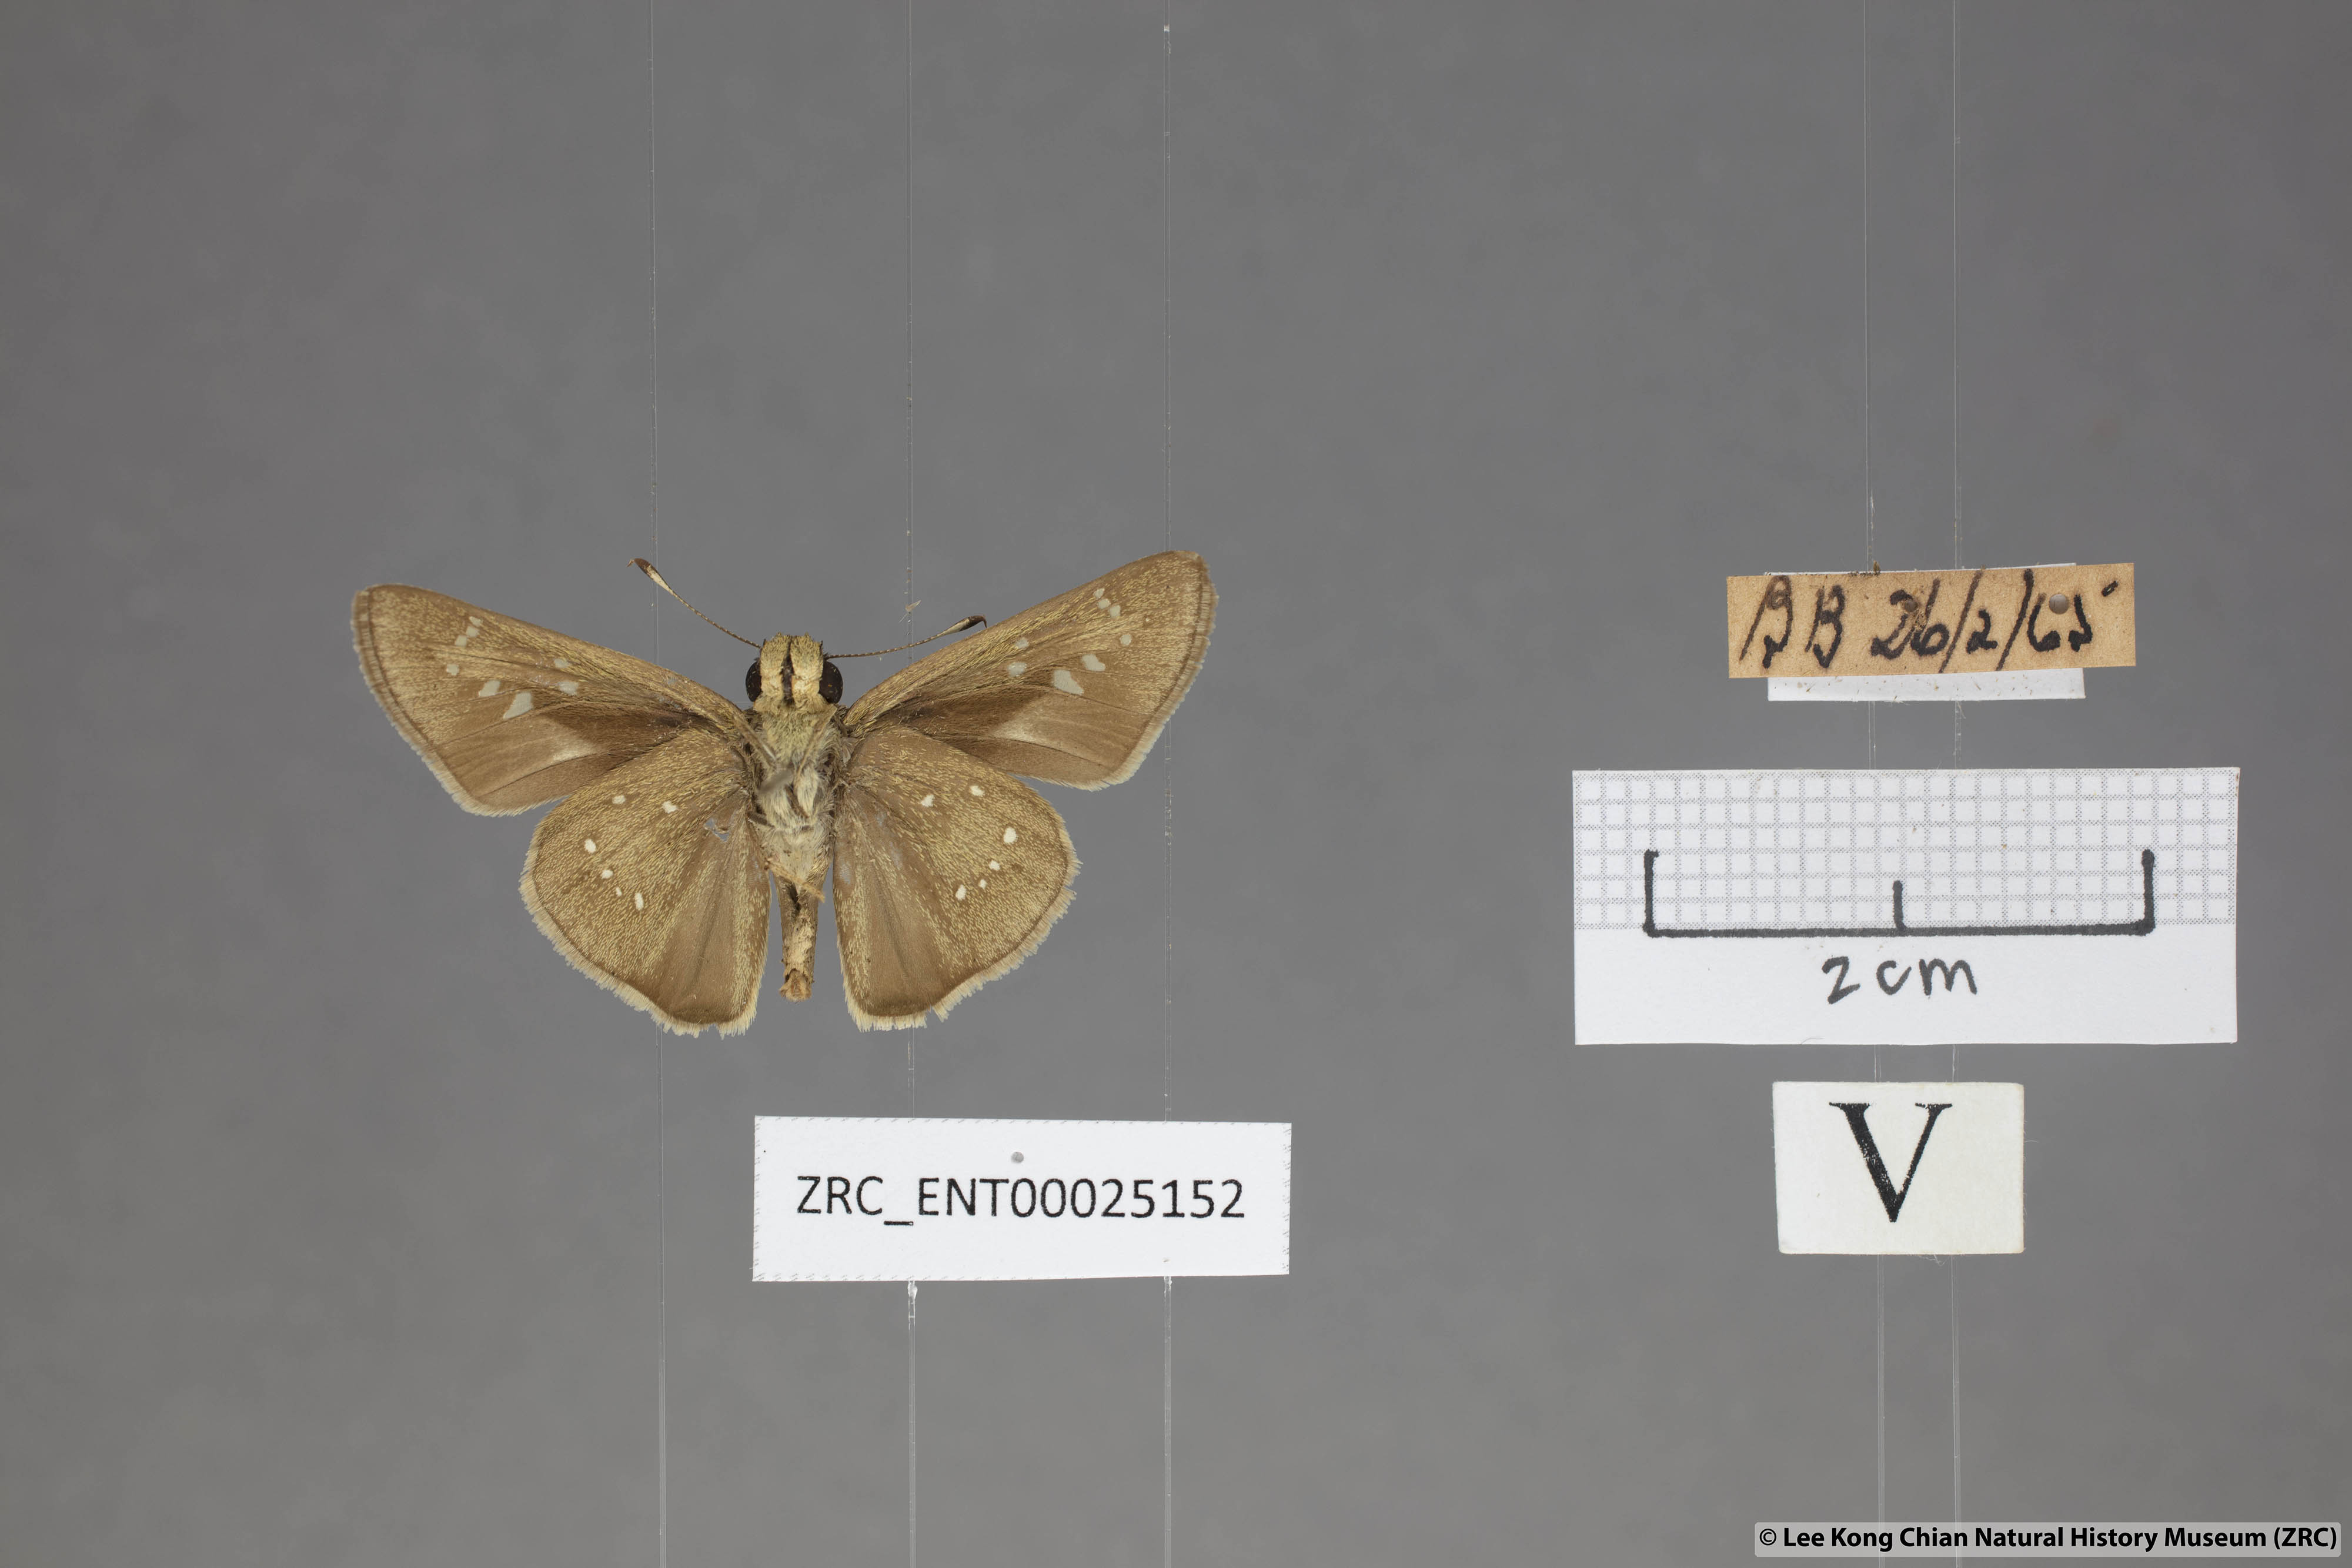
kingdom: Animalia
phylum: Arthropoda
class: Insecta
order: Lepidoptera
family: Hesperiidae
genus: Pelopidas
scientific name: Pelopidas mathias
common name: Black-branded swift
